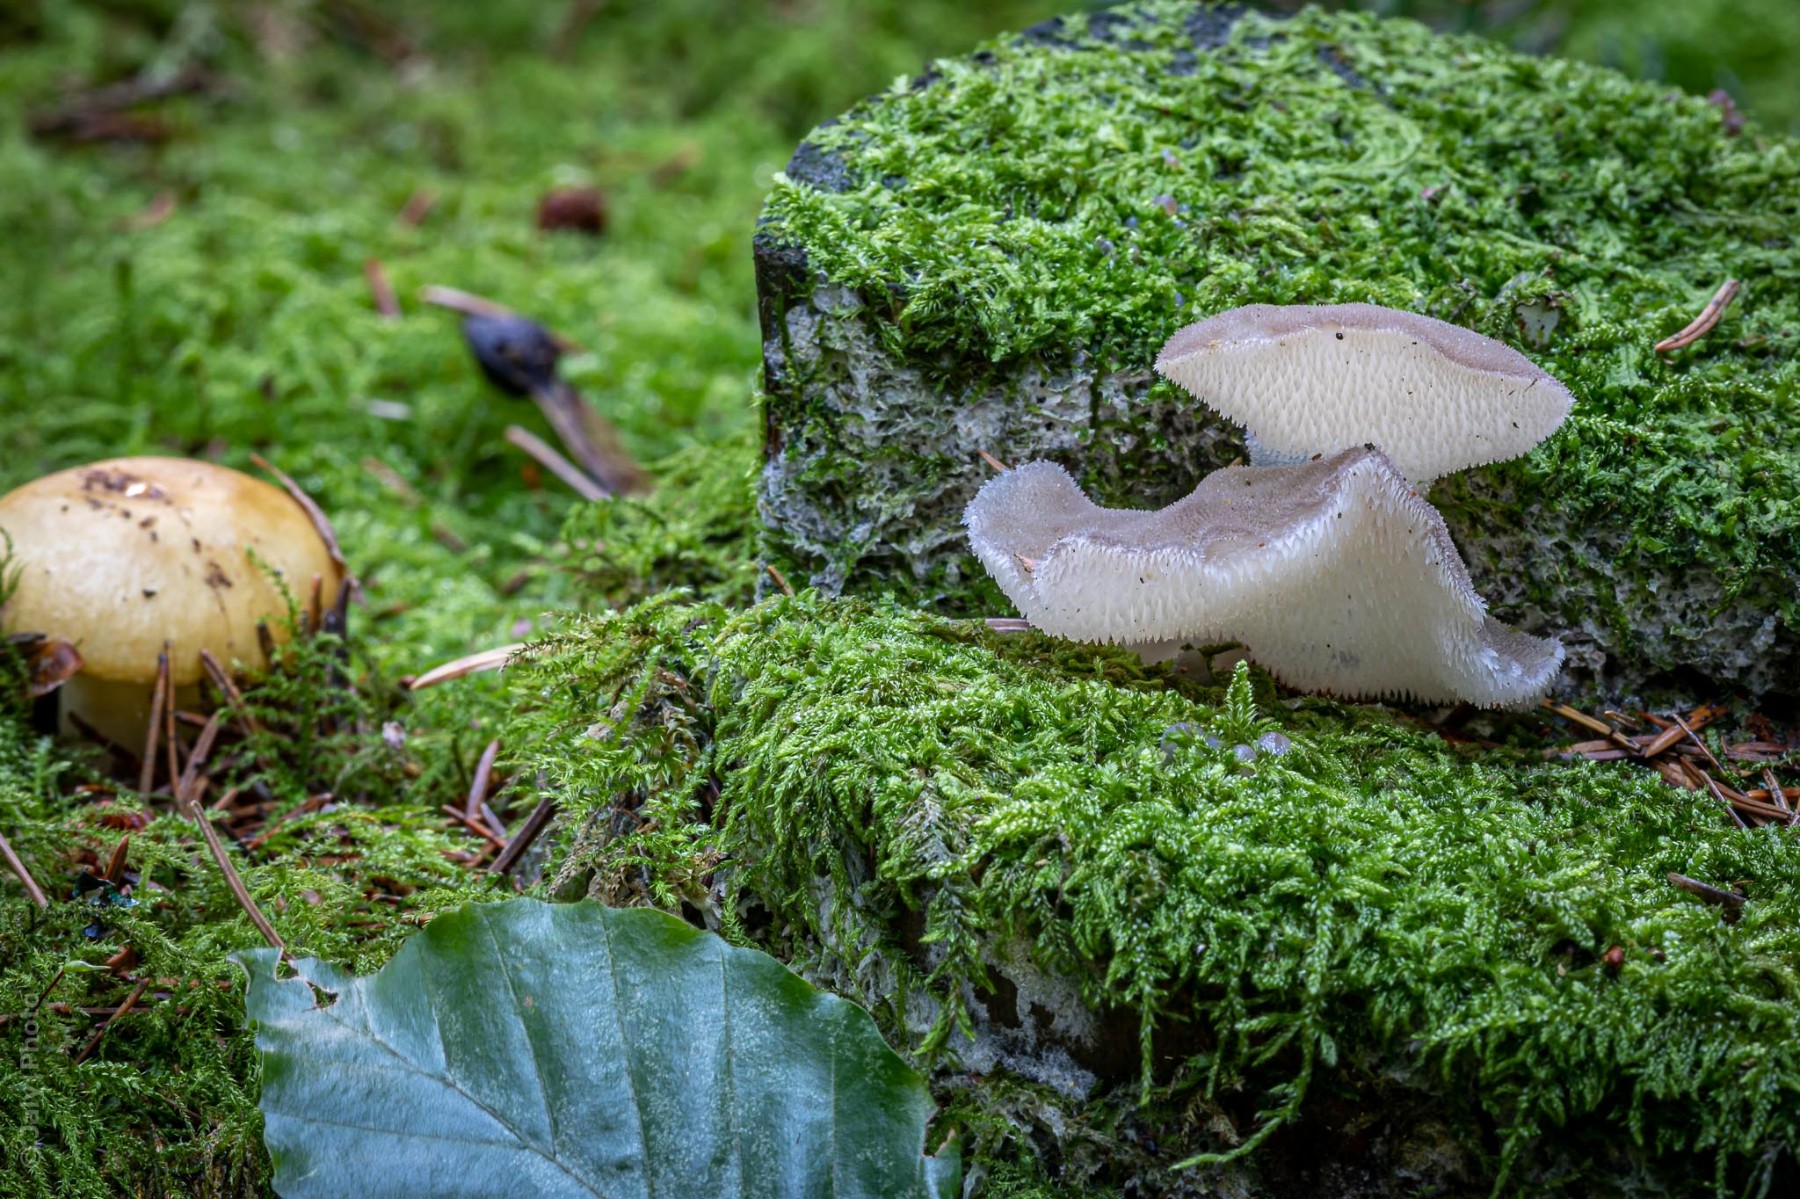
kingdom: Fungi
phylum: Basidiomycota
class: Agaricomycetes
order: Auriculariales
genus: Pseudohydnum
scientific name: Pseudohydnum gelatinosum
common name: bævretand
